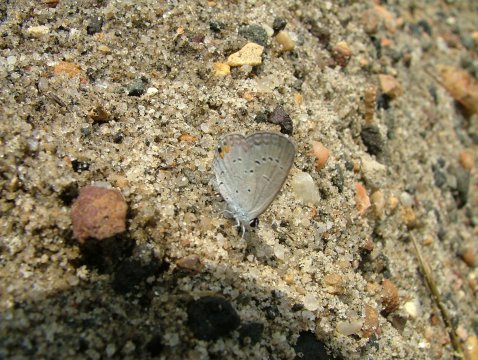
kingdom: Animalia
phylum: Arthropoda
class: Insecta
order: Lepidoptera
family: Lycaenidae
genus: Elkalyce
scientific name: Elkalyce comyntas
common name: Eastern Tailed-Blue
